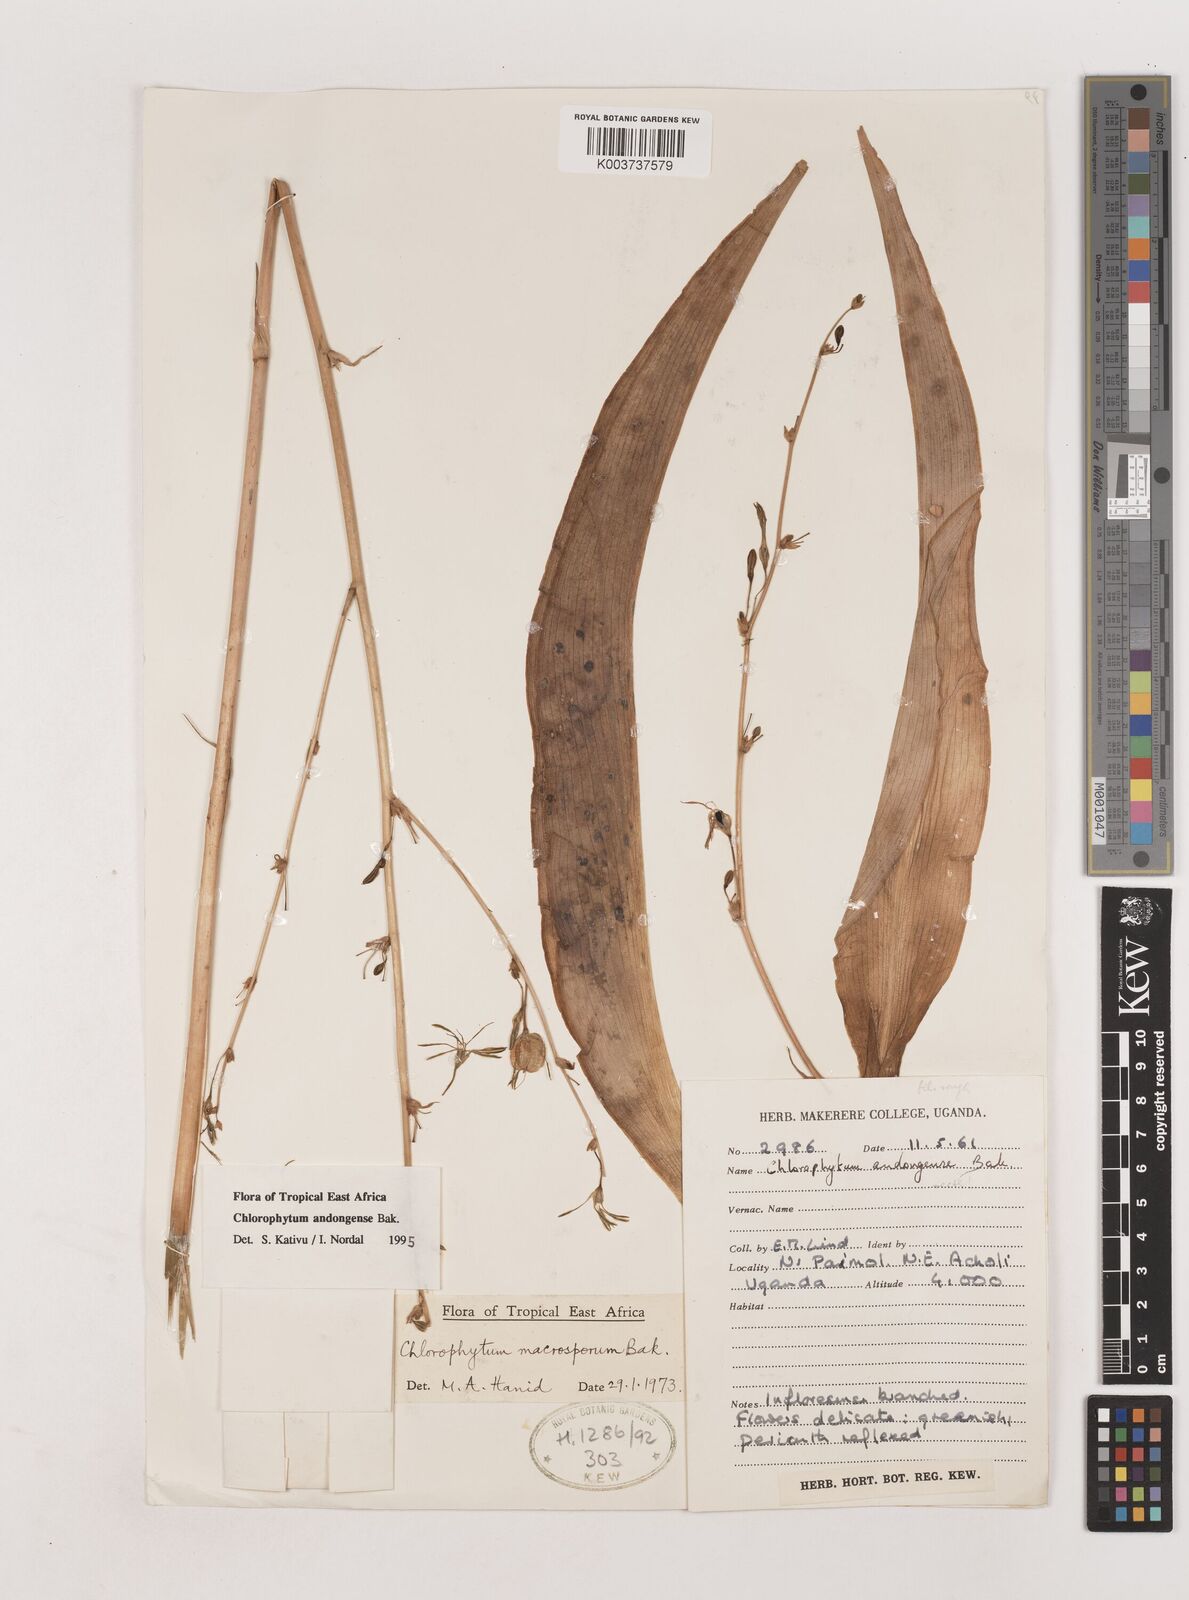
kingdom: Plantae
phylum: Tracheophyta
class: Liliopsida
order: Asparagales
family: Asparagaceae
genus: Chlorophytum
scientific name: Chlorophytum andongense
